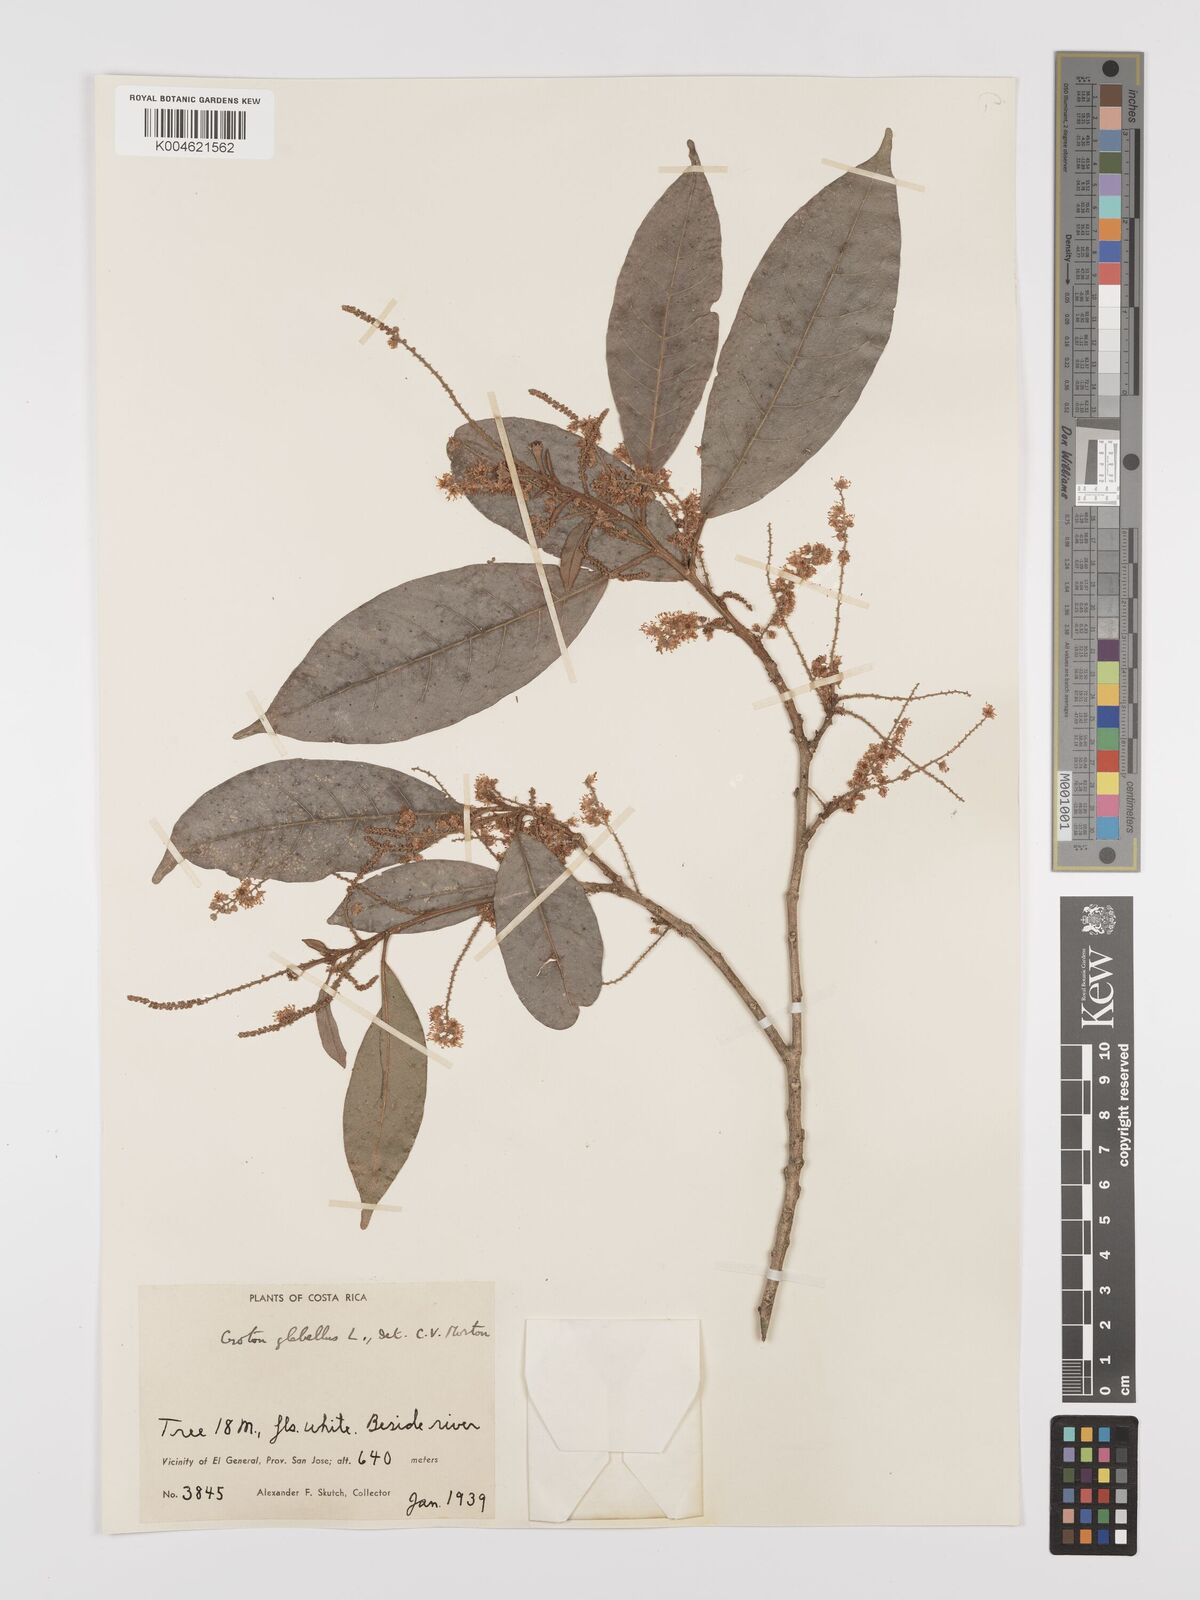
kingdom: Plantae
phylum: Tracheophyta
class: Magnoliopsida
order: Malpighiales
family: Euphorbiaceae
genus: Croton
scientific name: Croton glabellus
